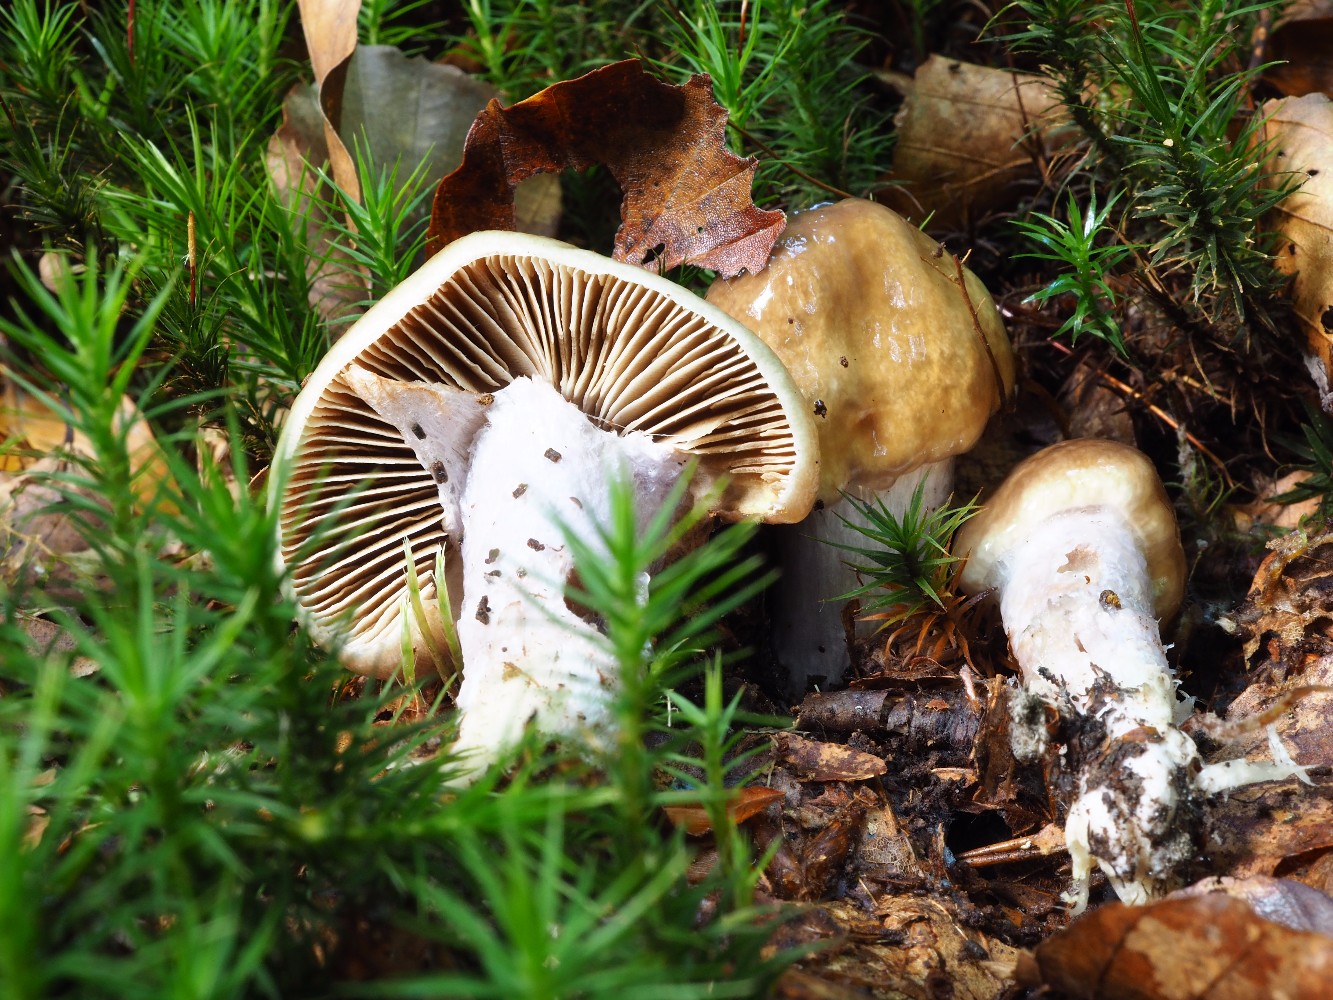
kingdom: Fungi
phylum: Basidiomycota
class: Agaricomycetes
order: Agaricales
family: Cortinariaceae
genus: Cortinarius
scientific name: Cortinarius livido-ochraceus
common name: halvhøj slørhat
